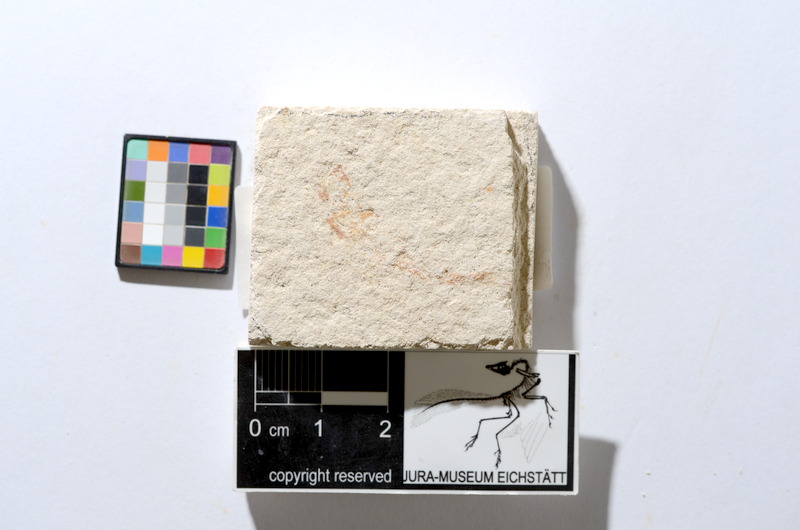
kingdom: Animalia
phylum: Chordata
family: Ascalaboidae
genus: Tharsis
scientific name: Tharsis dubius
